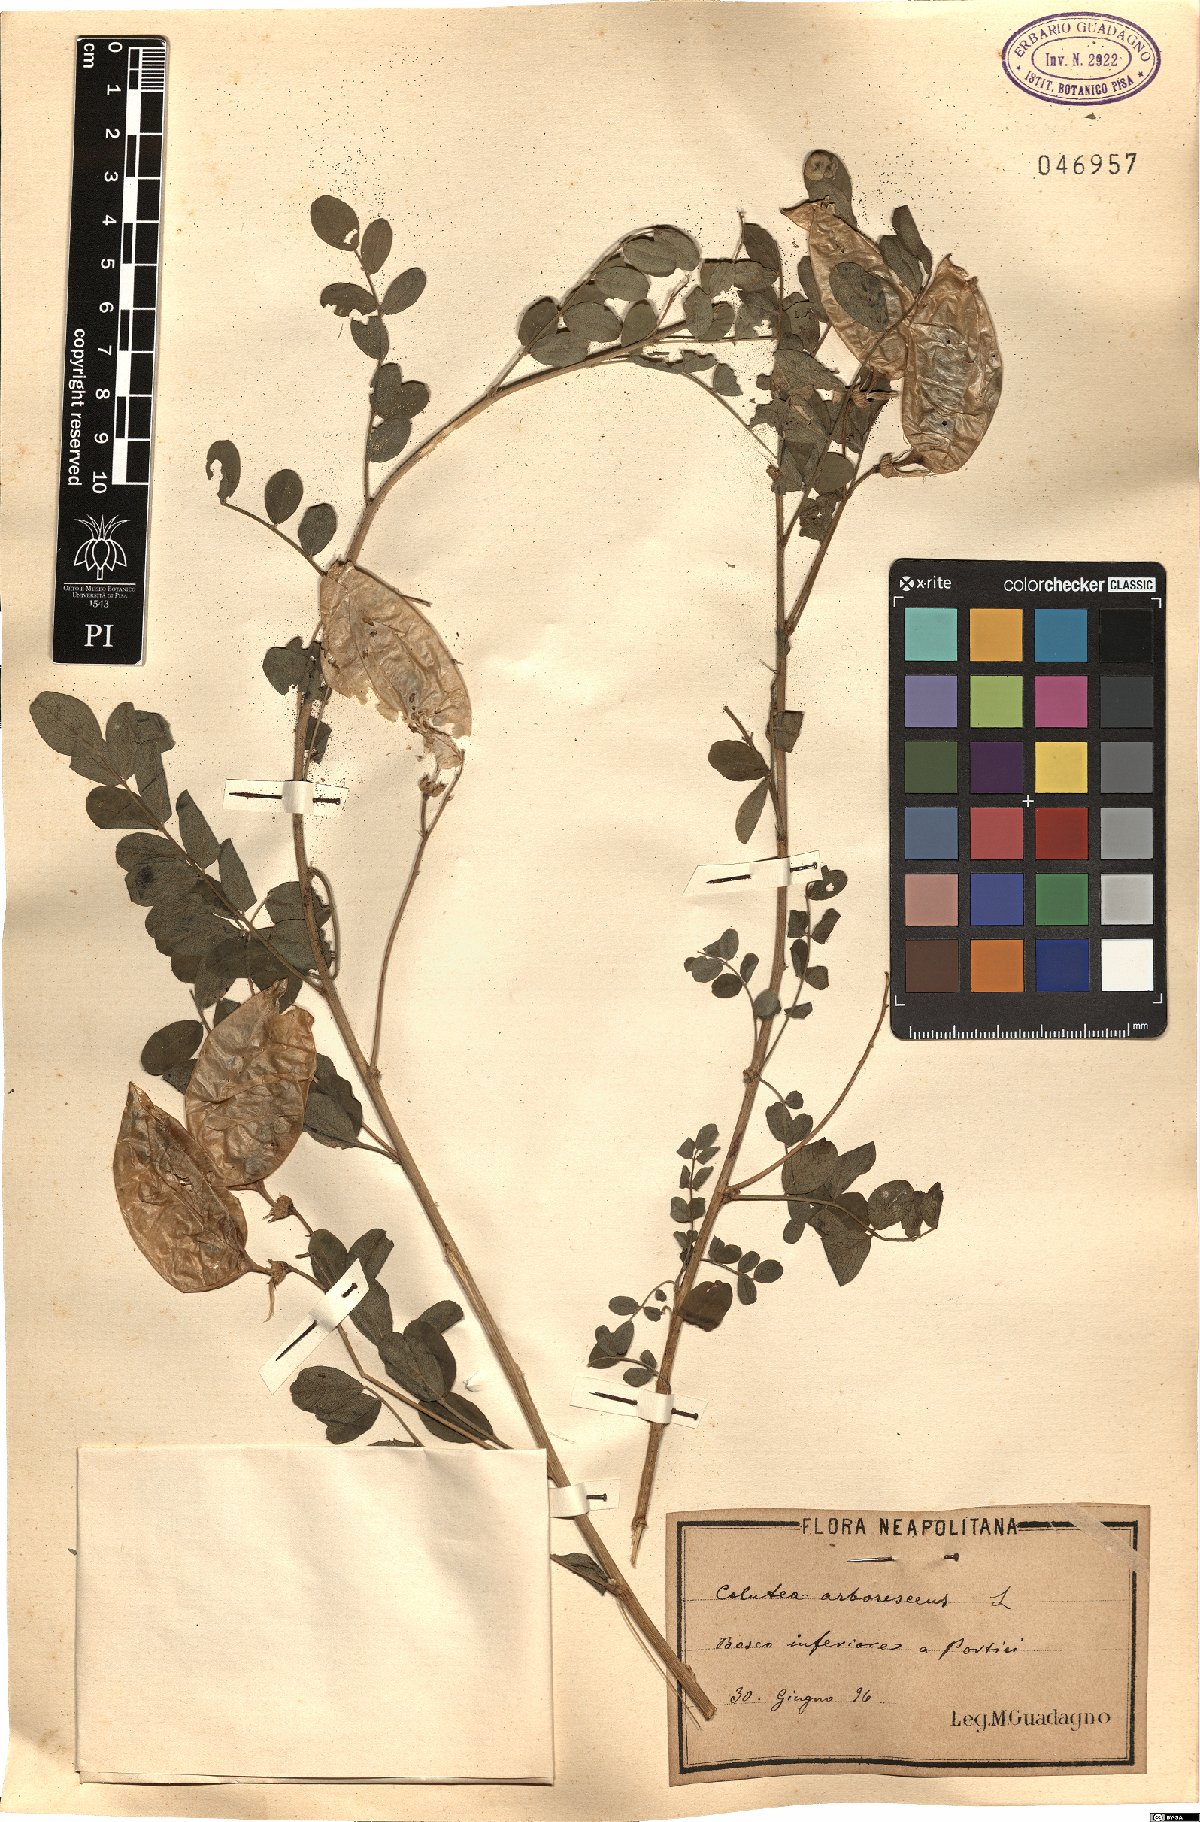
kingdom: Plantae
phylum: Tracheophyta
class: Magnoliopsida
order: Fabales
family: Fabaceae
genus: Colutea
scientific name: Colutea arborescens
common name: Bladder-senna
